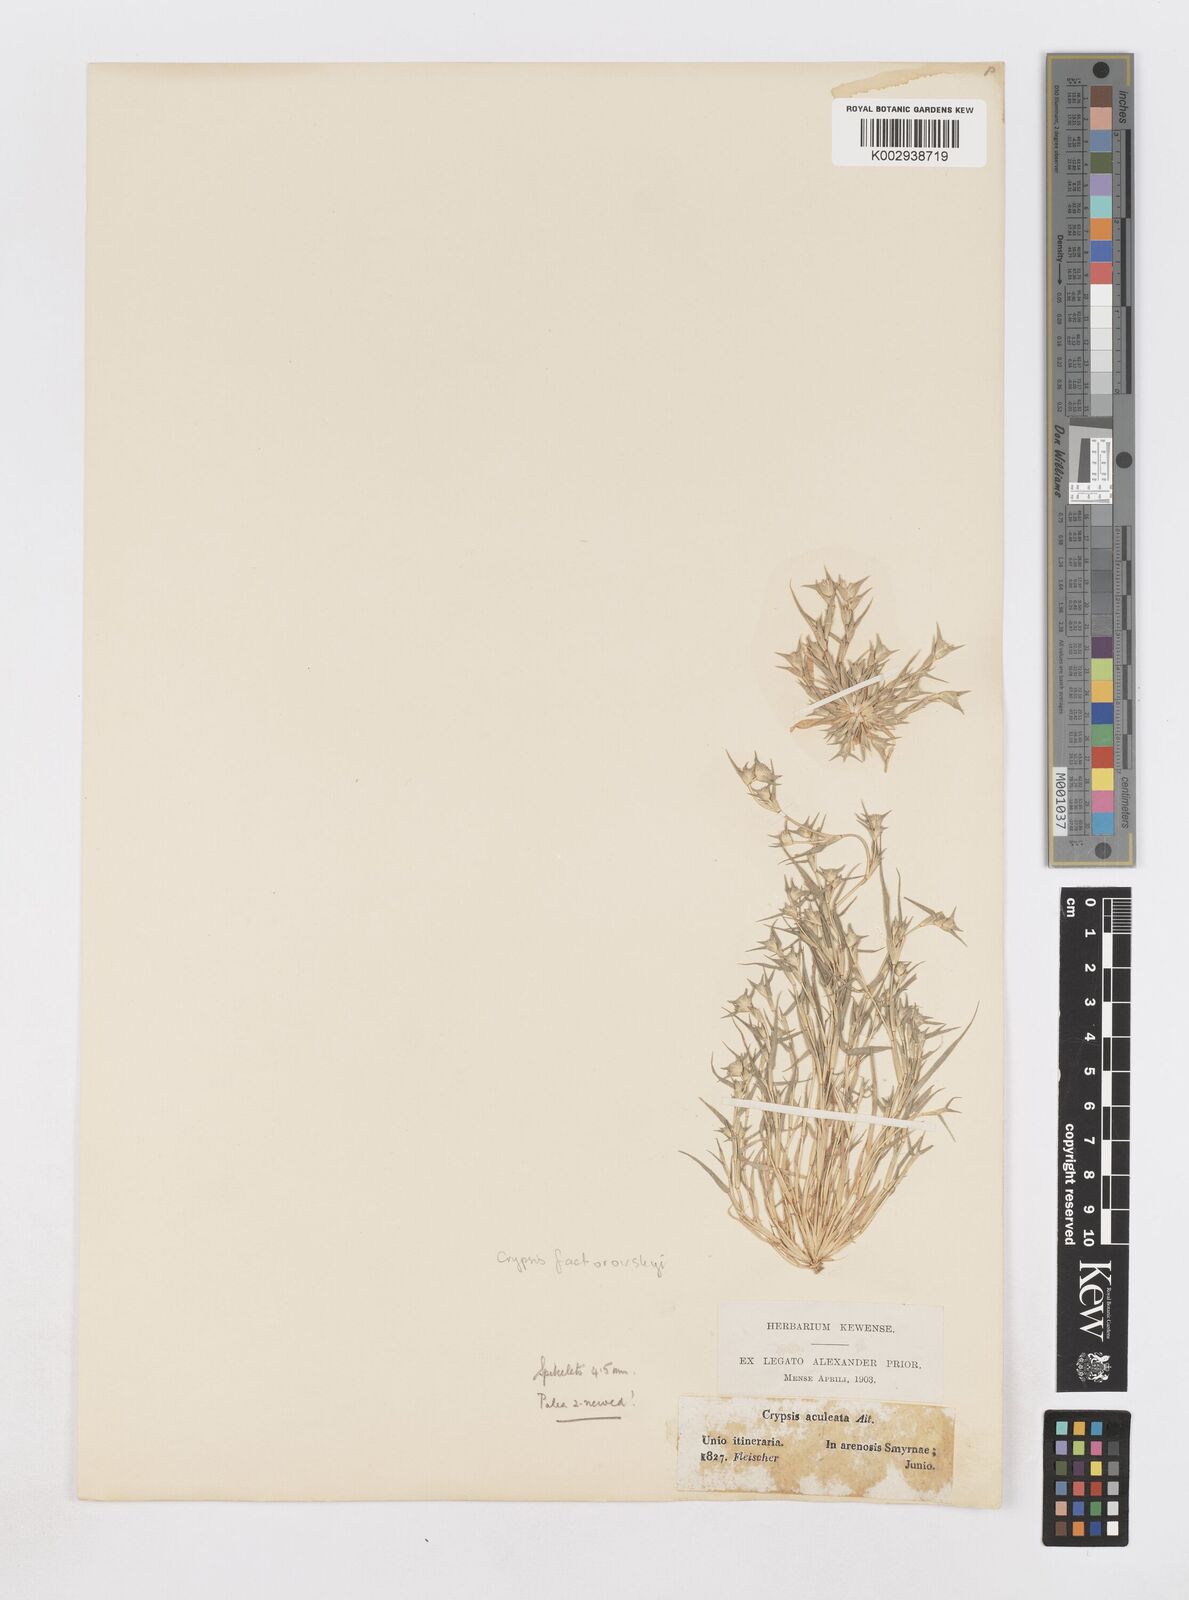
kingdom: Plantae
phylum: Tracheophyta
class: Liliopsida
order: Poales
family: Poaceae
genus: Sporobolus
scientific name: Sporobolus factorovskyi
